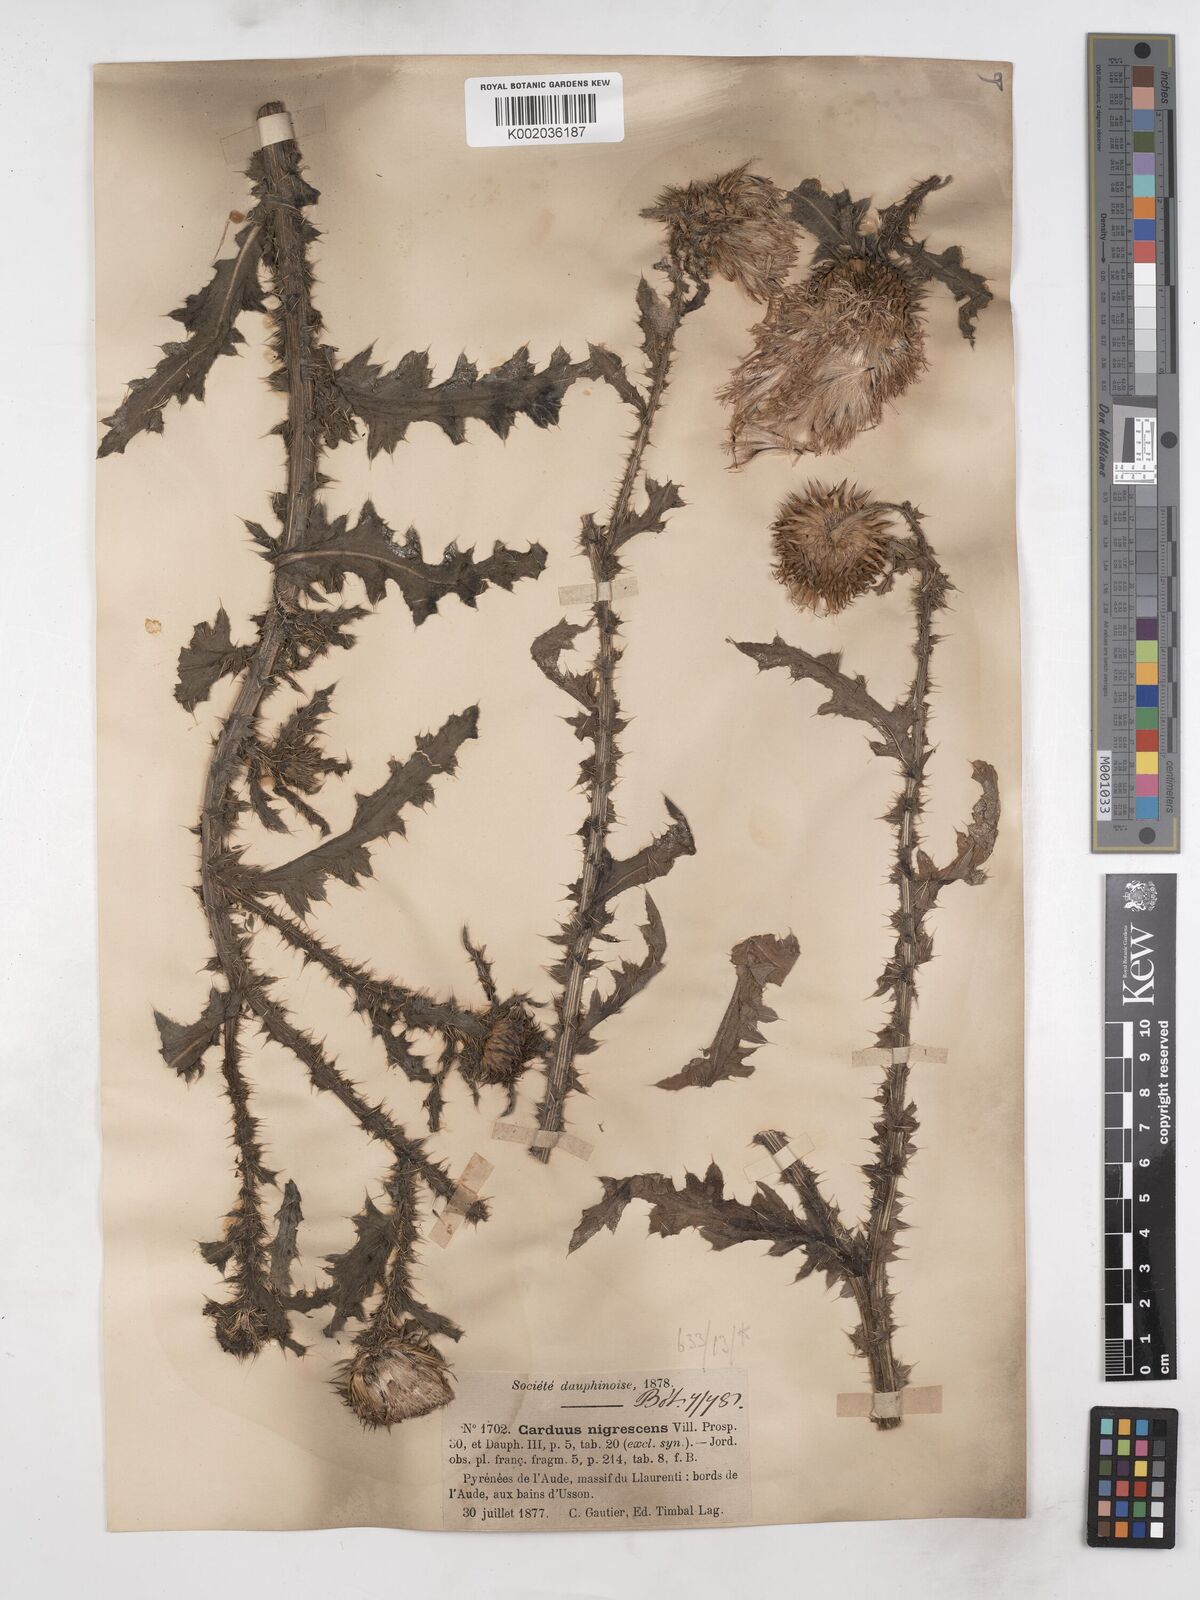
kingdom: Plantae
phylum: Tracheophyta
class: Magnoliopsida
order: Asterales
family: Asteraceae
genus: Carduus
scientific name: Carduus nigrescens
